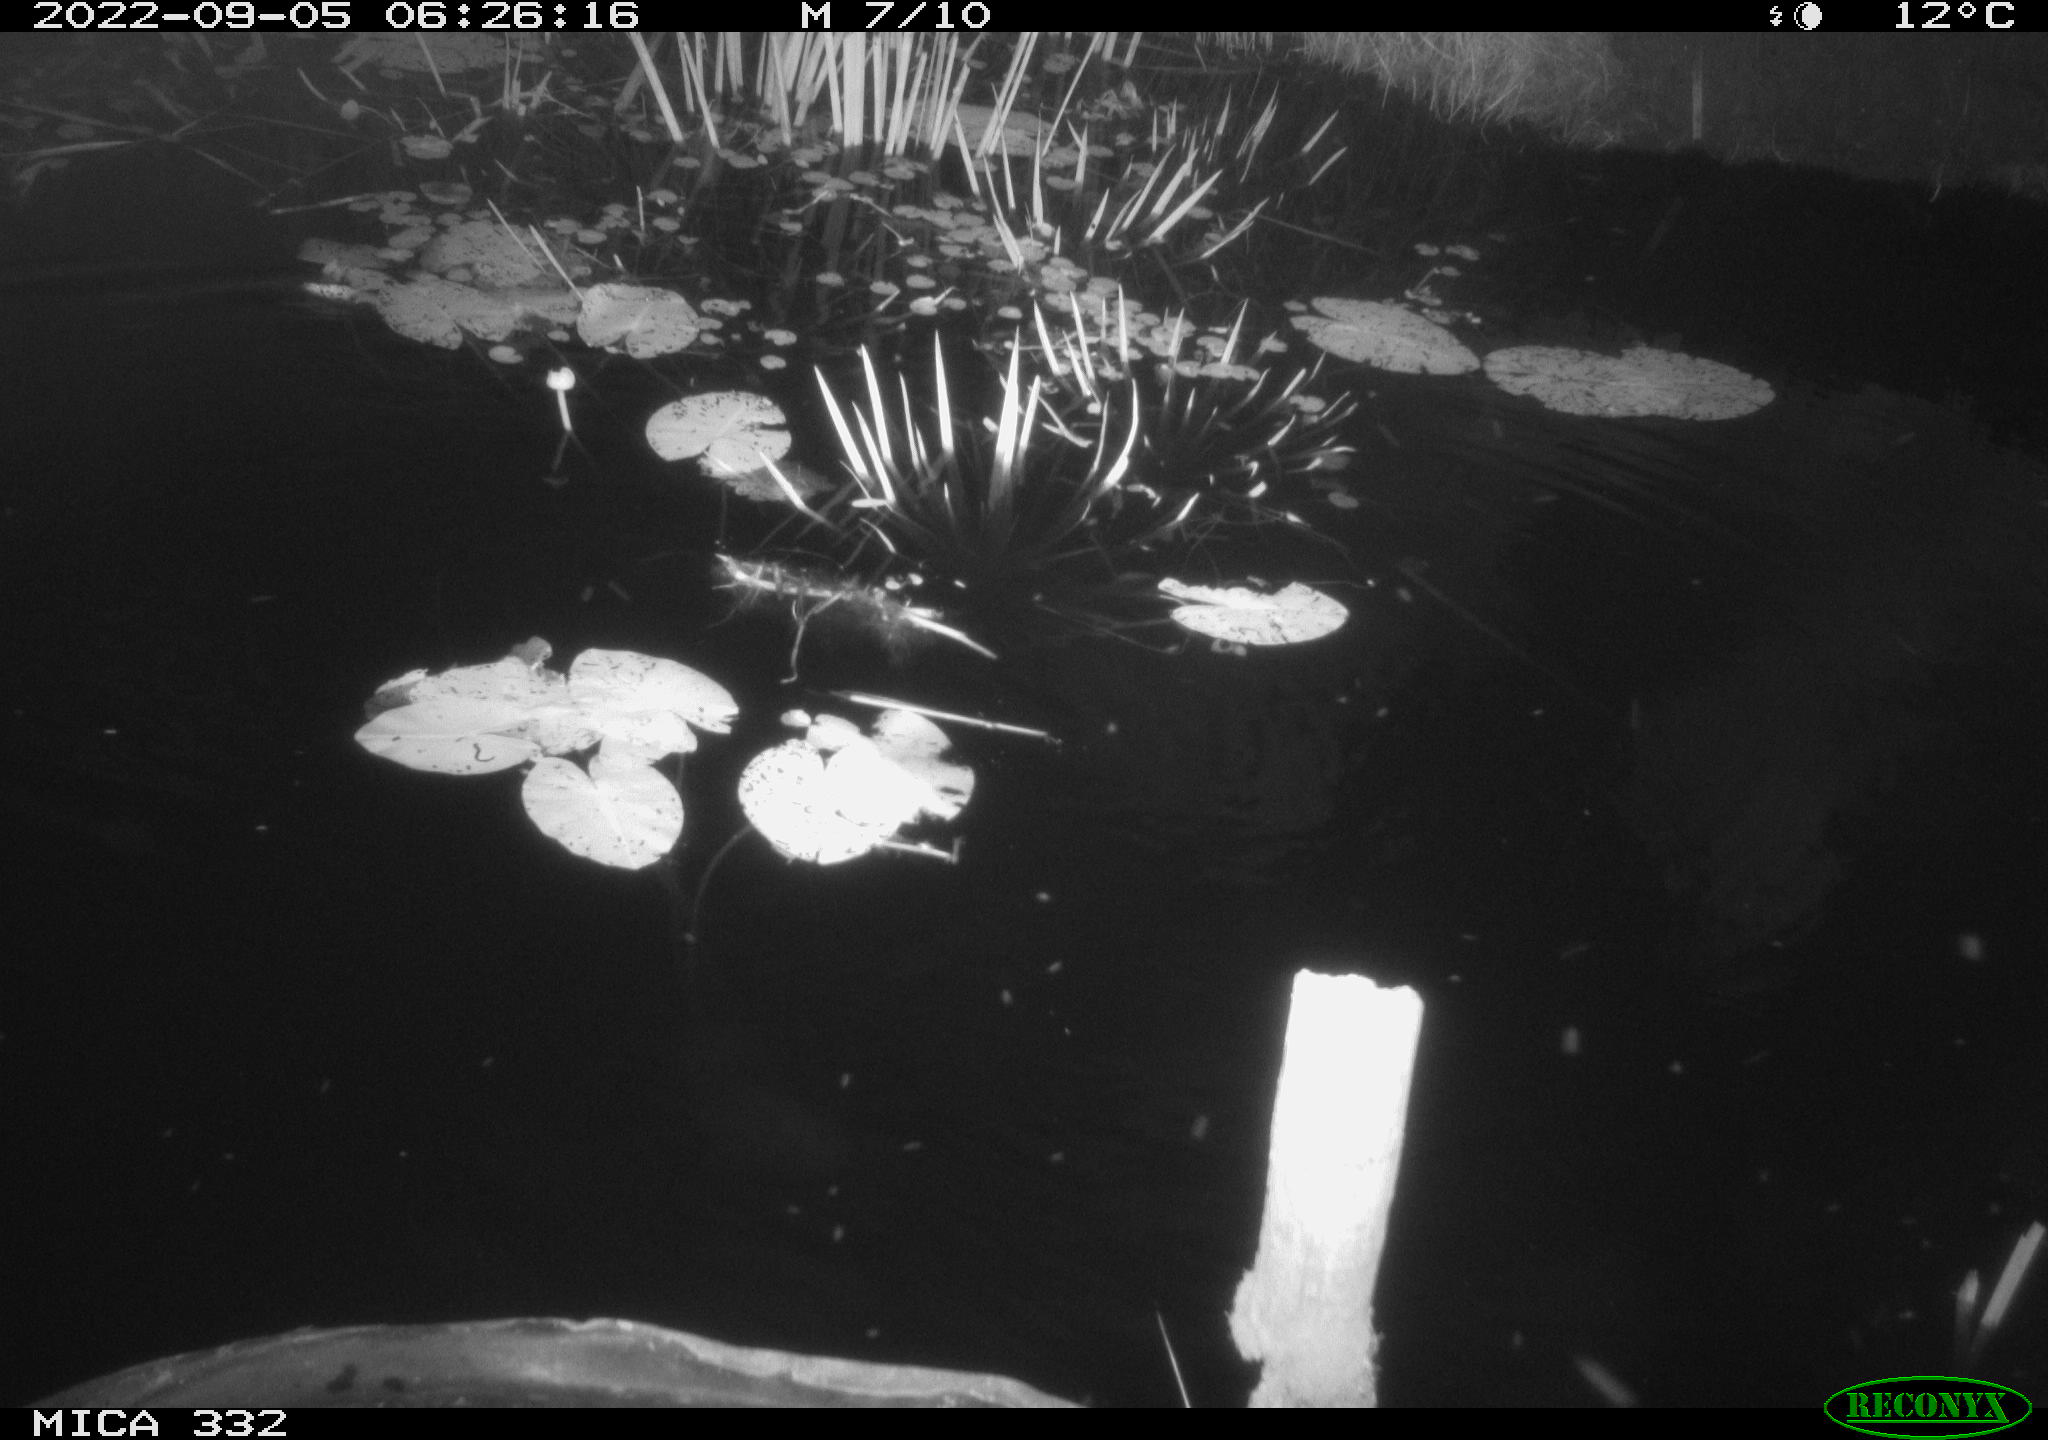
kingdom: Animalia
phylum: Chordata
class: Aves
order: Anseriformes
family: Anatidae
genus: Anas
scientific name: Anas platyrhynchos
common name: Mallard
